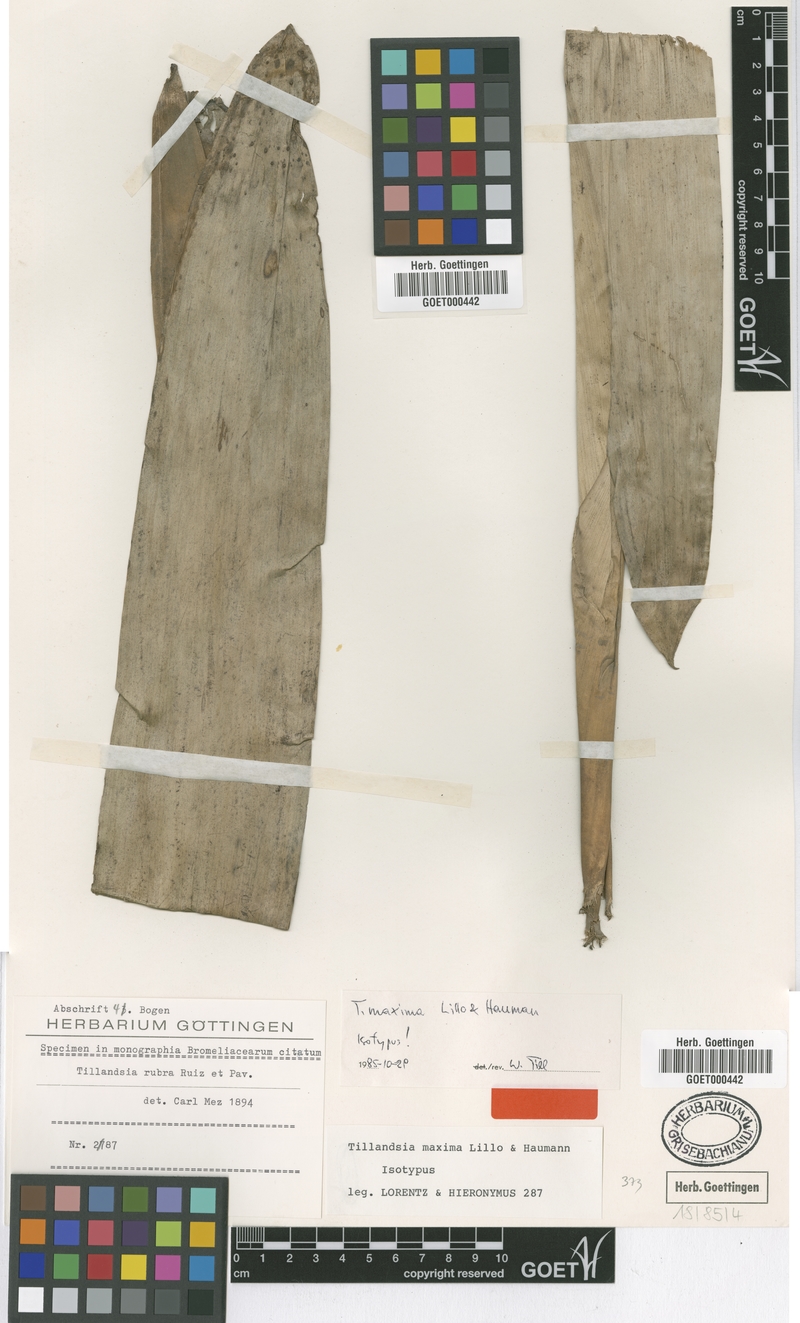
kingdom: Plantae
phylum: Tracheophyta
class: Liliopsida
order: Poales
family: Bromeliaceae
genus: Tillandsia
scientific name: Tillandsia australis
